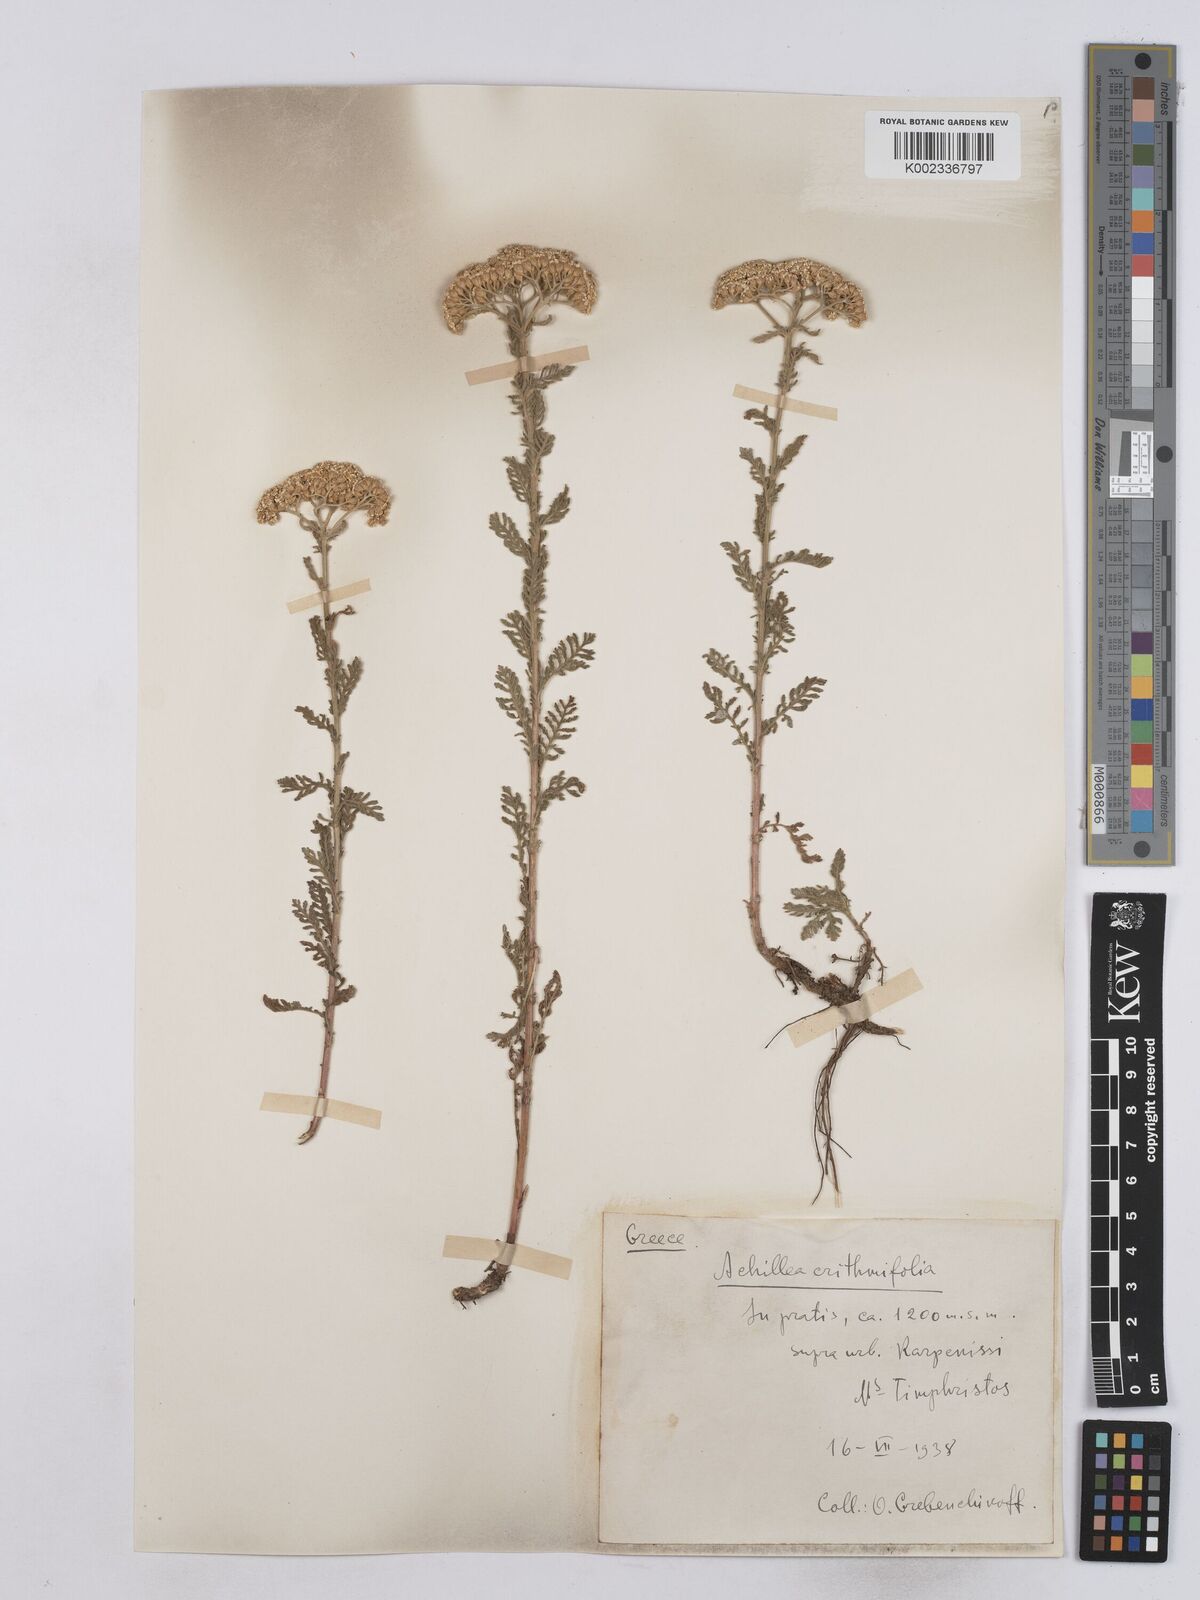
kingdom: Plantae
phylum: Tracheophyta
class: Magnoliopsida
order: Asterales
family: Asteraceae
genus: Achillea
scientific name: Achillea crithmifolia
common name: Yarrow
